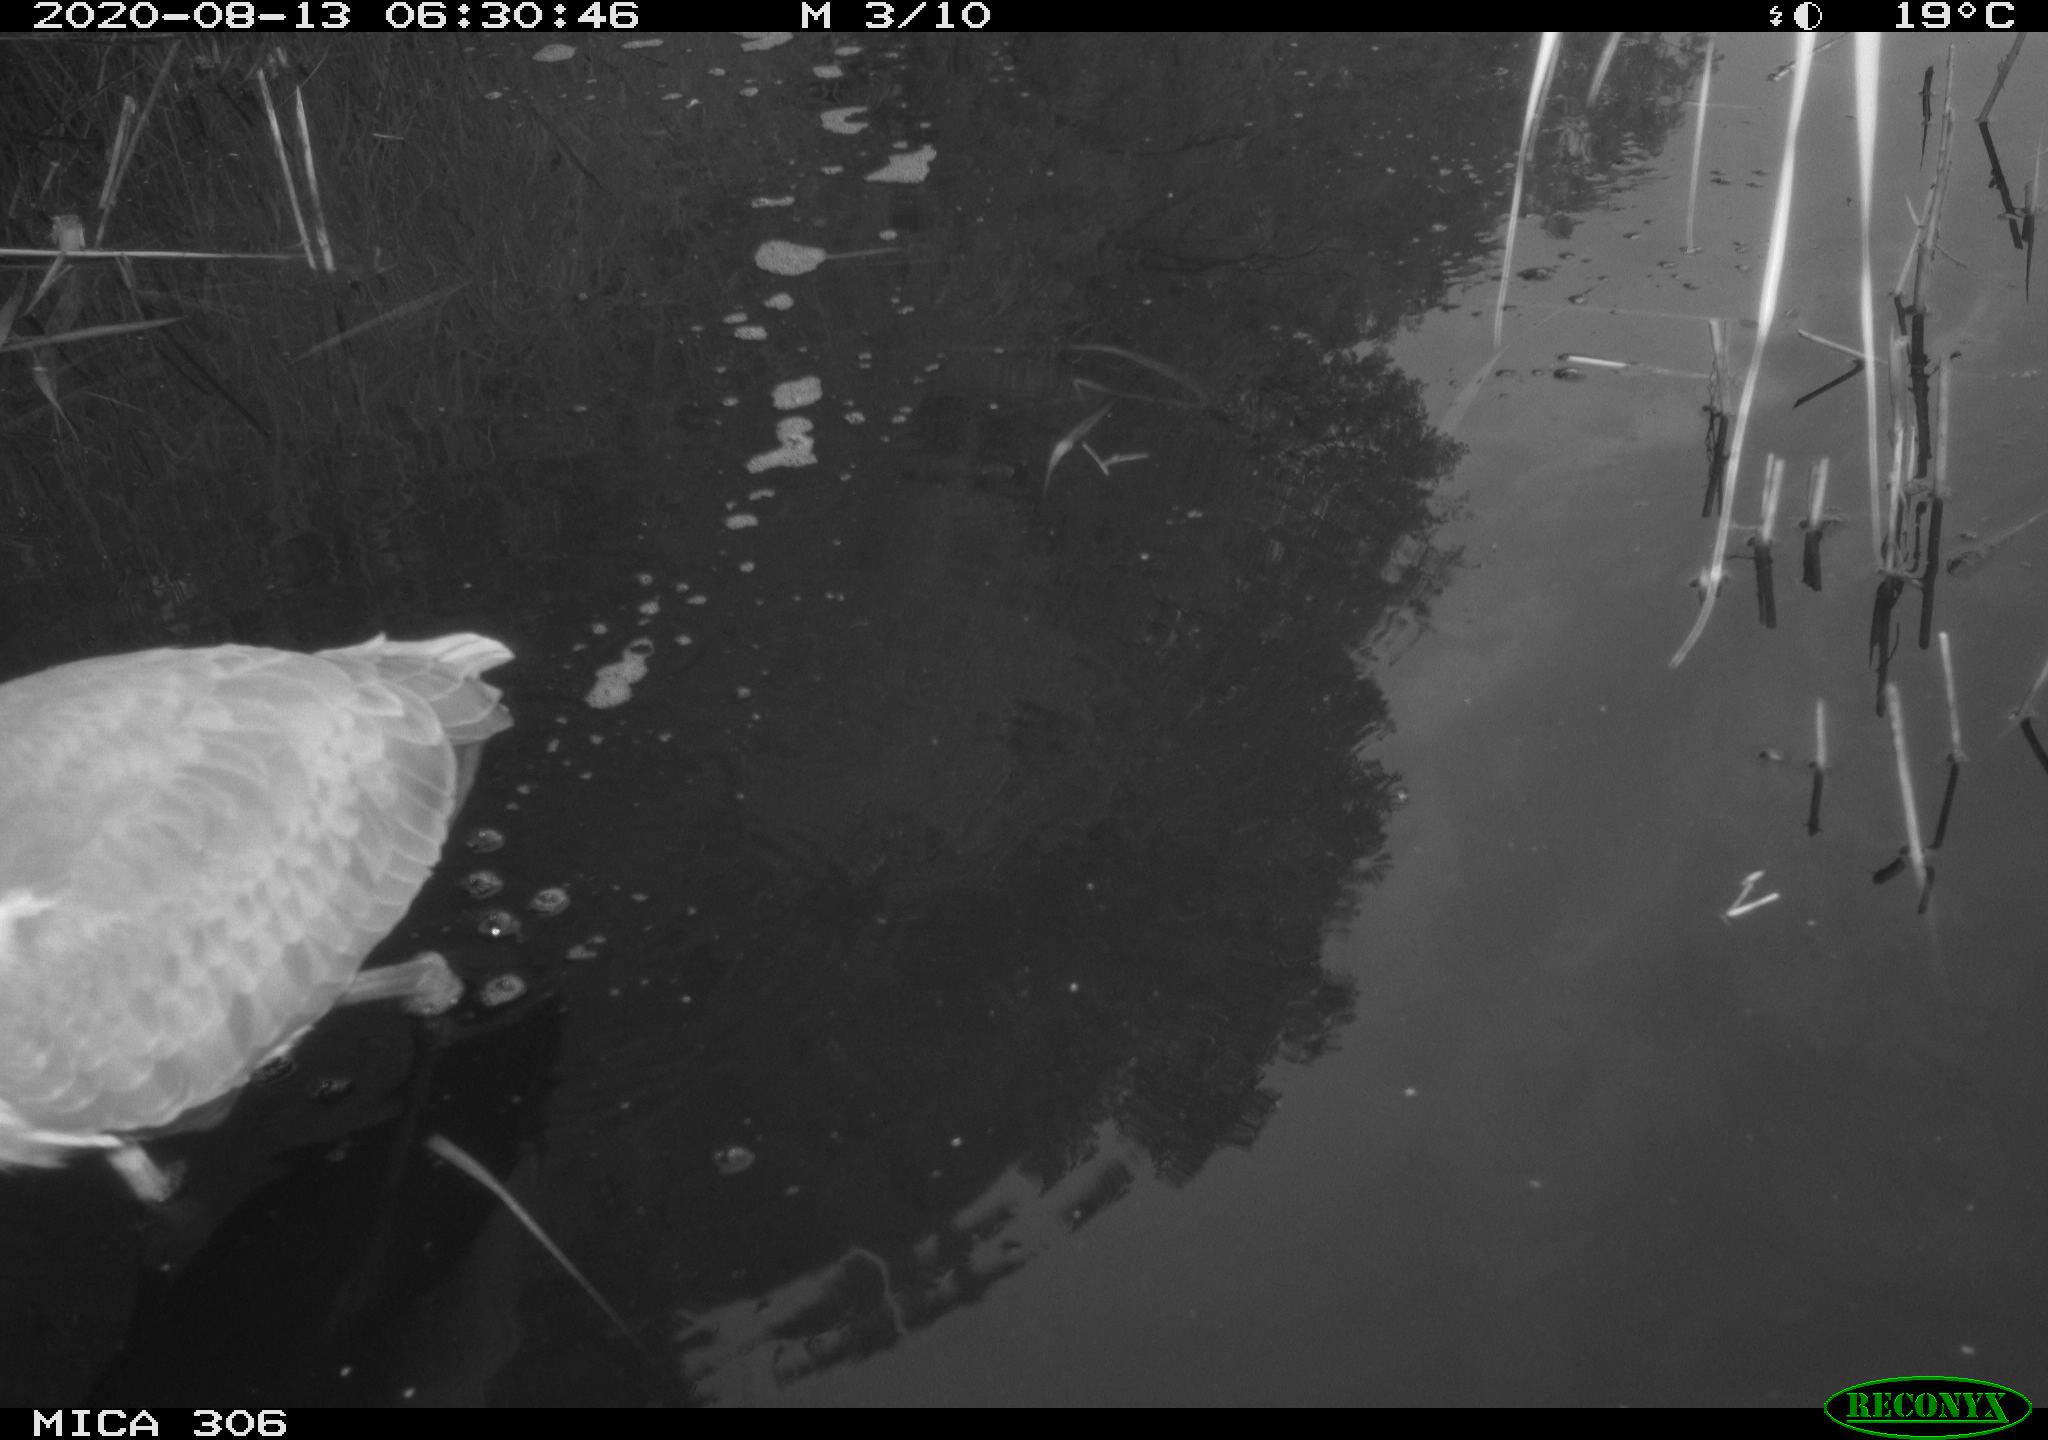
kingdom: Animalia
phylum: Chordata
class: Aves
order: Pelecaniformes
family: Ardeidae
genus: Ardea
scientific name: Ardea cinerea
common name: Grey heron
